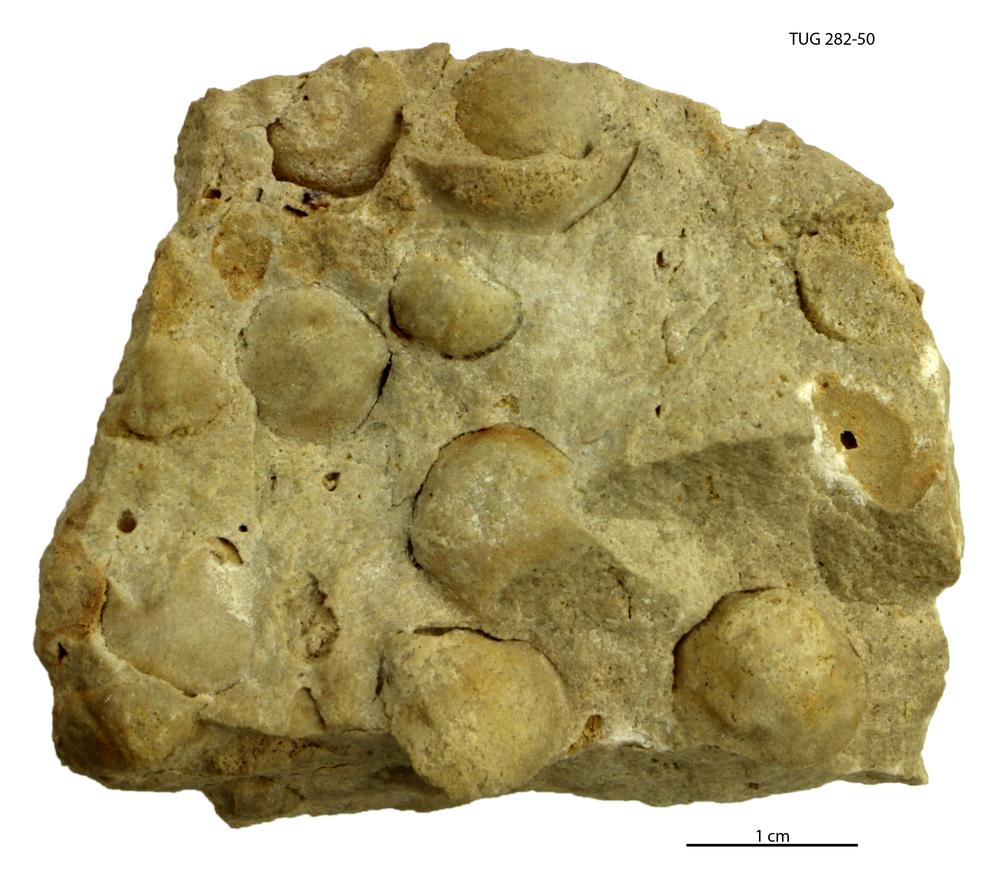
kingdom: Animalia
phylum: Mollusca
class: Gastropoda
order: Littorinimorpha
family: Naticidae
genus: Natica
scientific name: Natica
